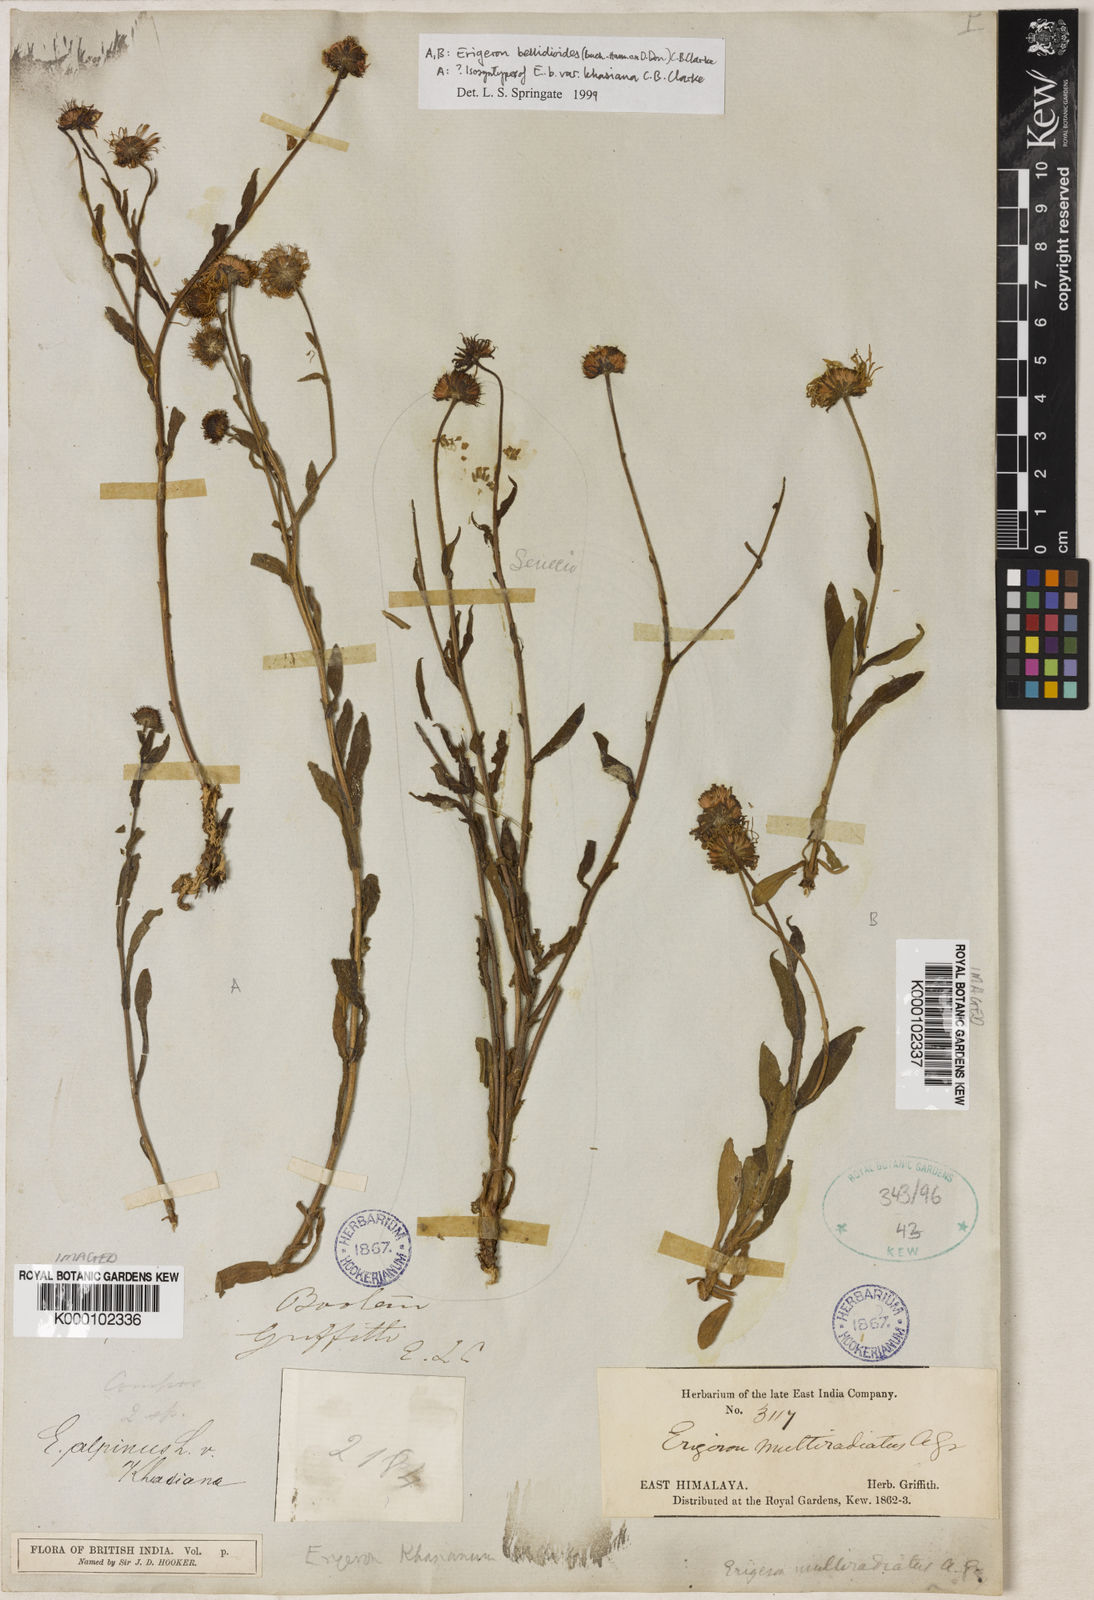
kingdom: Plantae
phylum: Tracheophyta
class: Magnoliopsida
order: Asterales
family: Asteraceae
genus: Erigeron
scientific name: Erigeron alpinus
